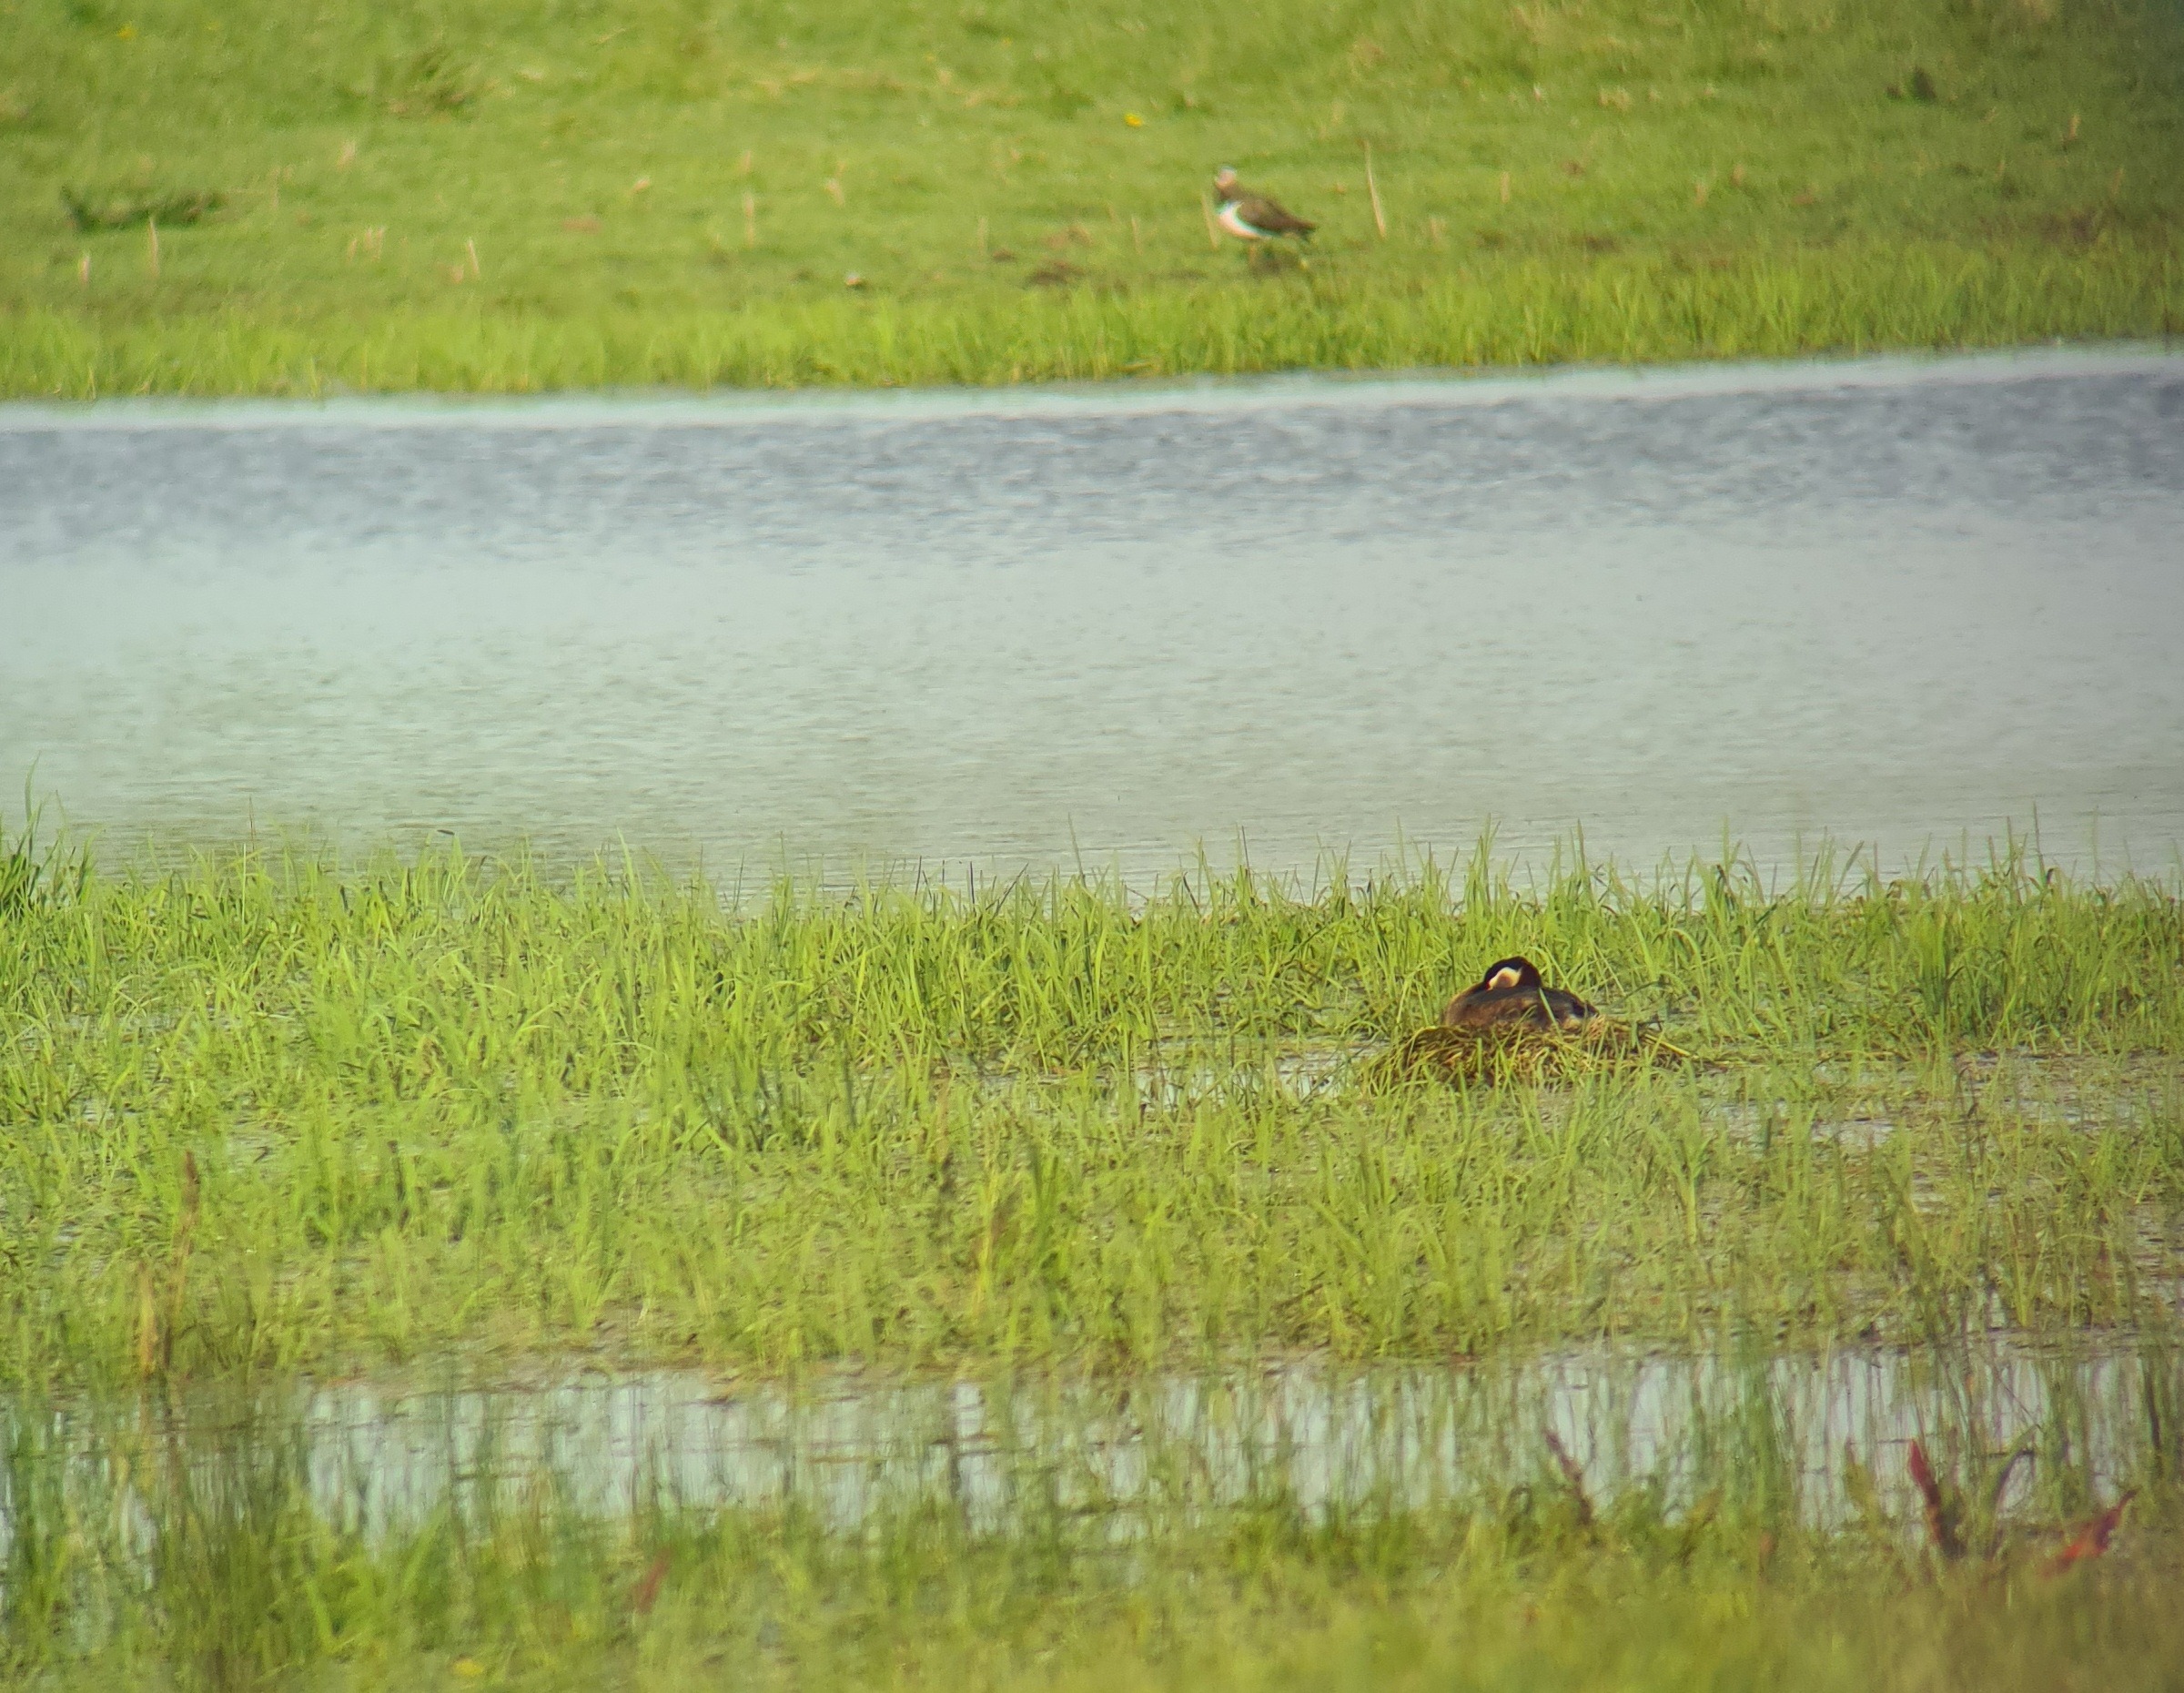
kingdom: Animalia
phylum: Chordata
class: Aves
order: Podicipediformes
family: Podicipedidae
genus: Podiceps
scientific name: Podiceps grisegena
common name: Gråstrubet lappedykker
